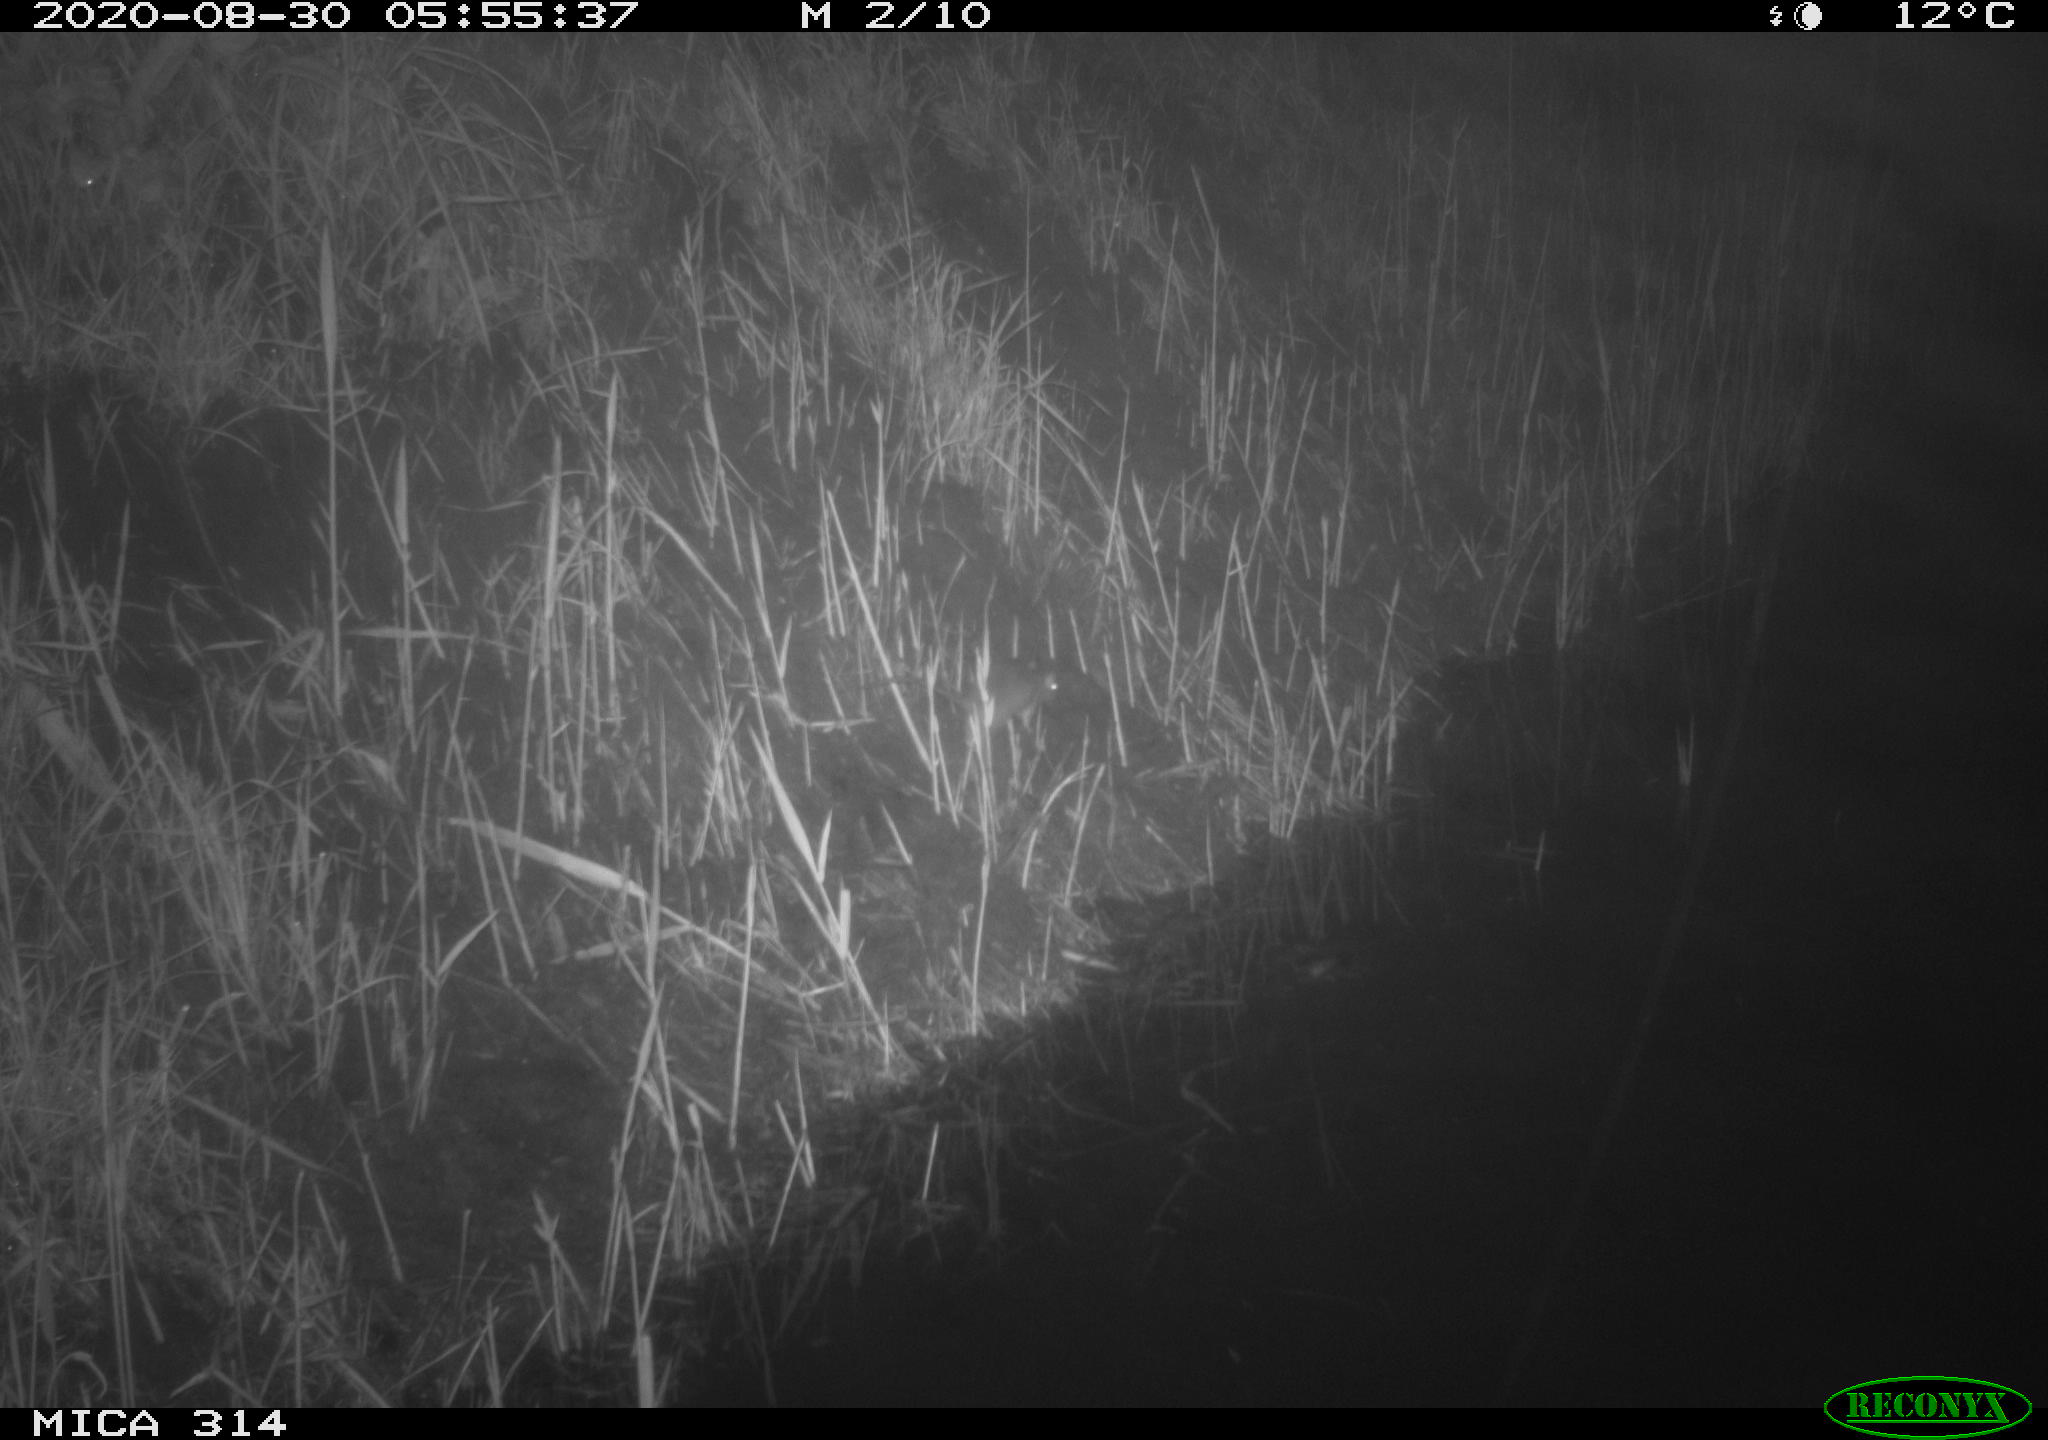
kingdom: Animalia
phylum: Chordata
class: Mammalia
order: Rodentia
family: Muridae
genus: Rattus
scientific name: Rattus norvegicus
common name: Brown rat
